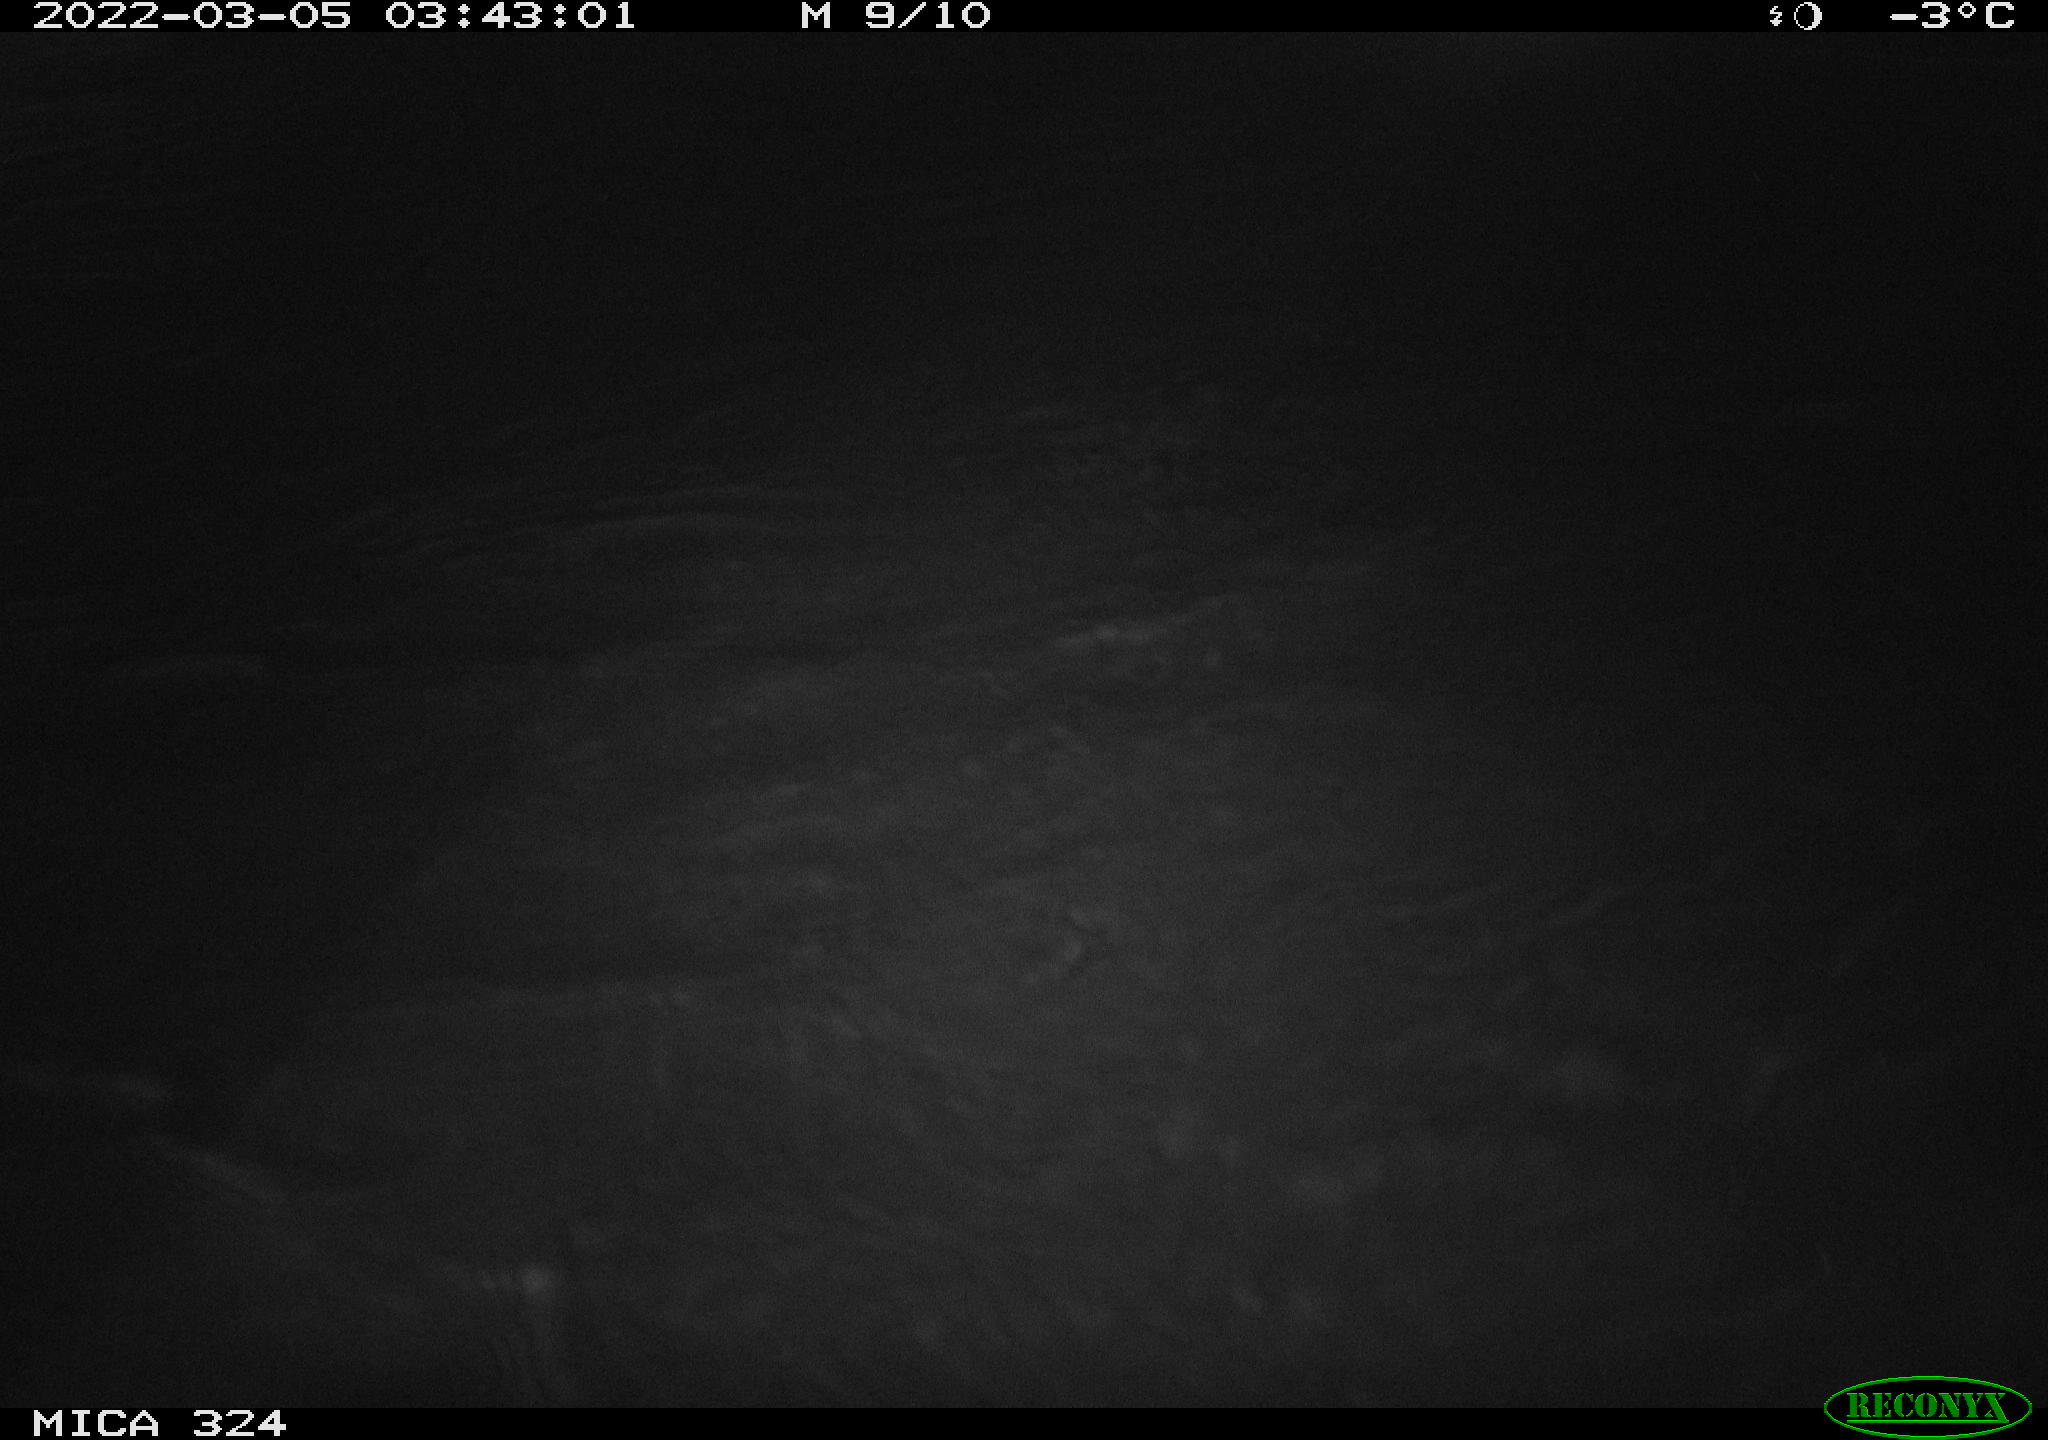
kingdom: Animalia
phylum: Chordata
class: Mammalia
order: Rodentia
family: Cricetidae
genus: Ondatra
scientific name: Ondatra zibethicus
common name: Muskrat
